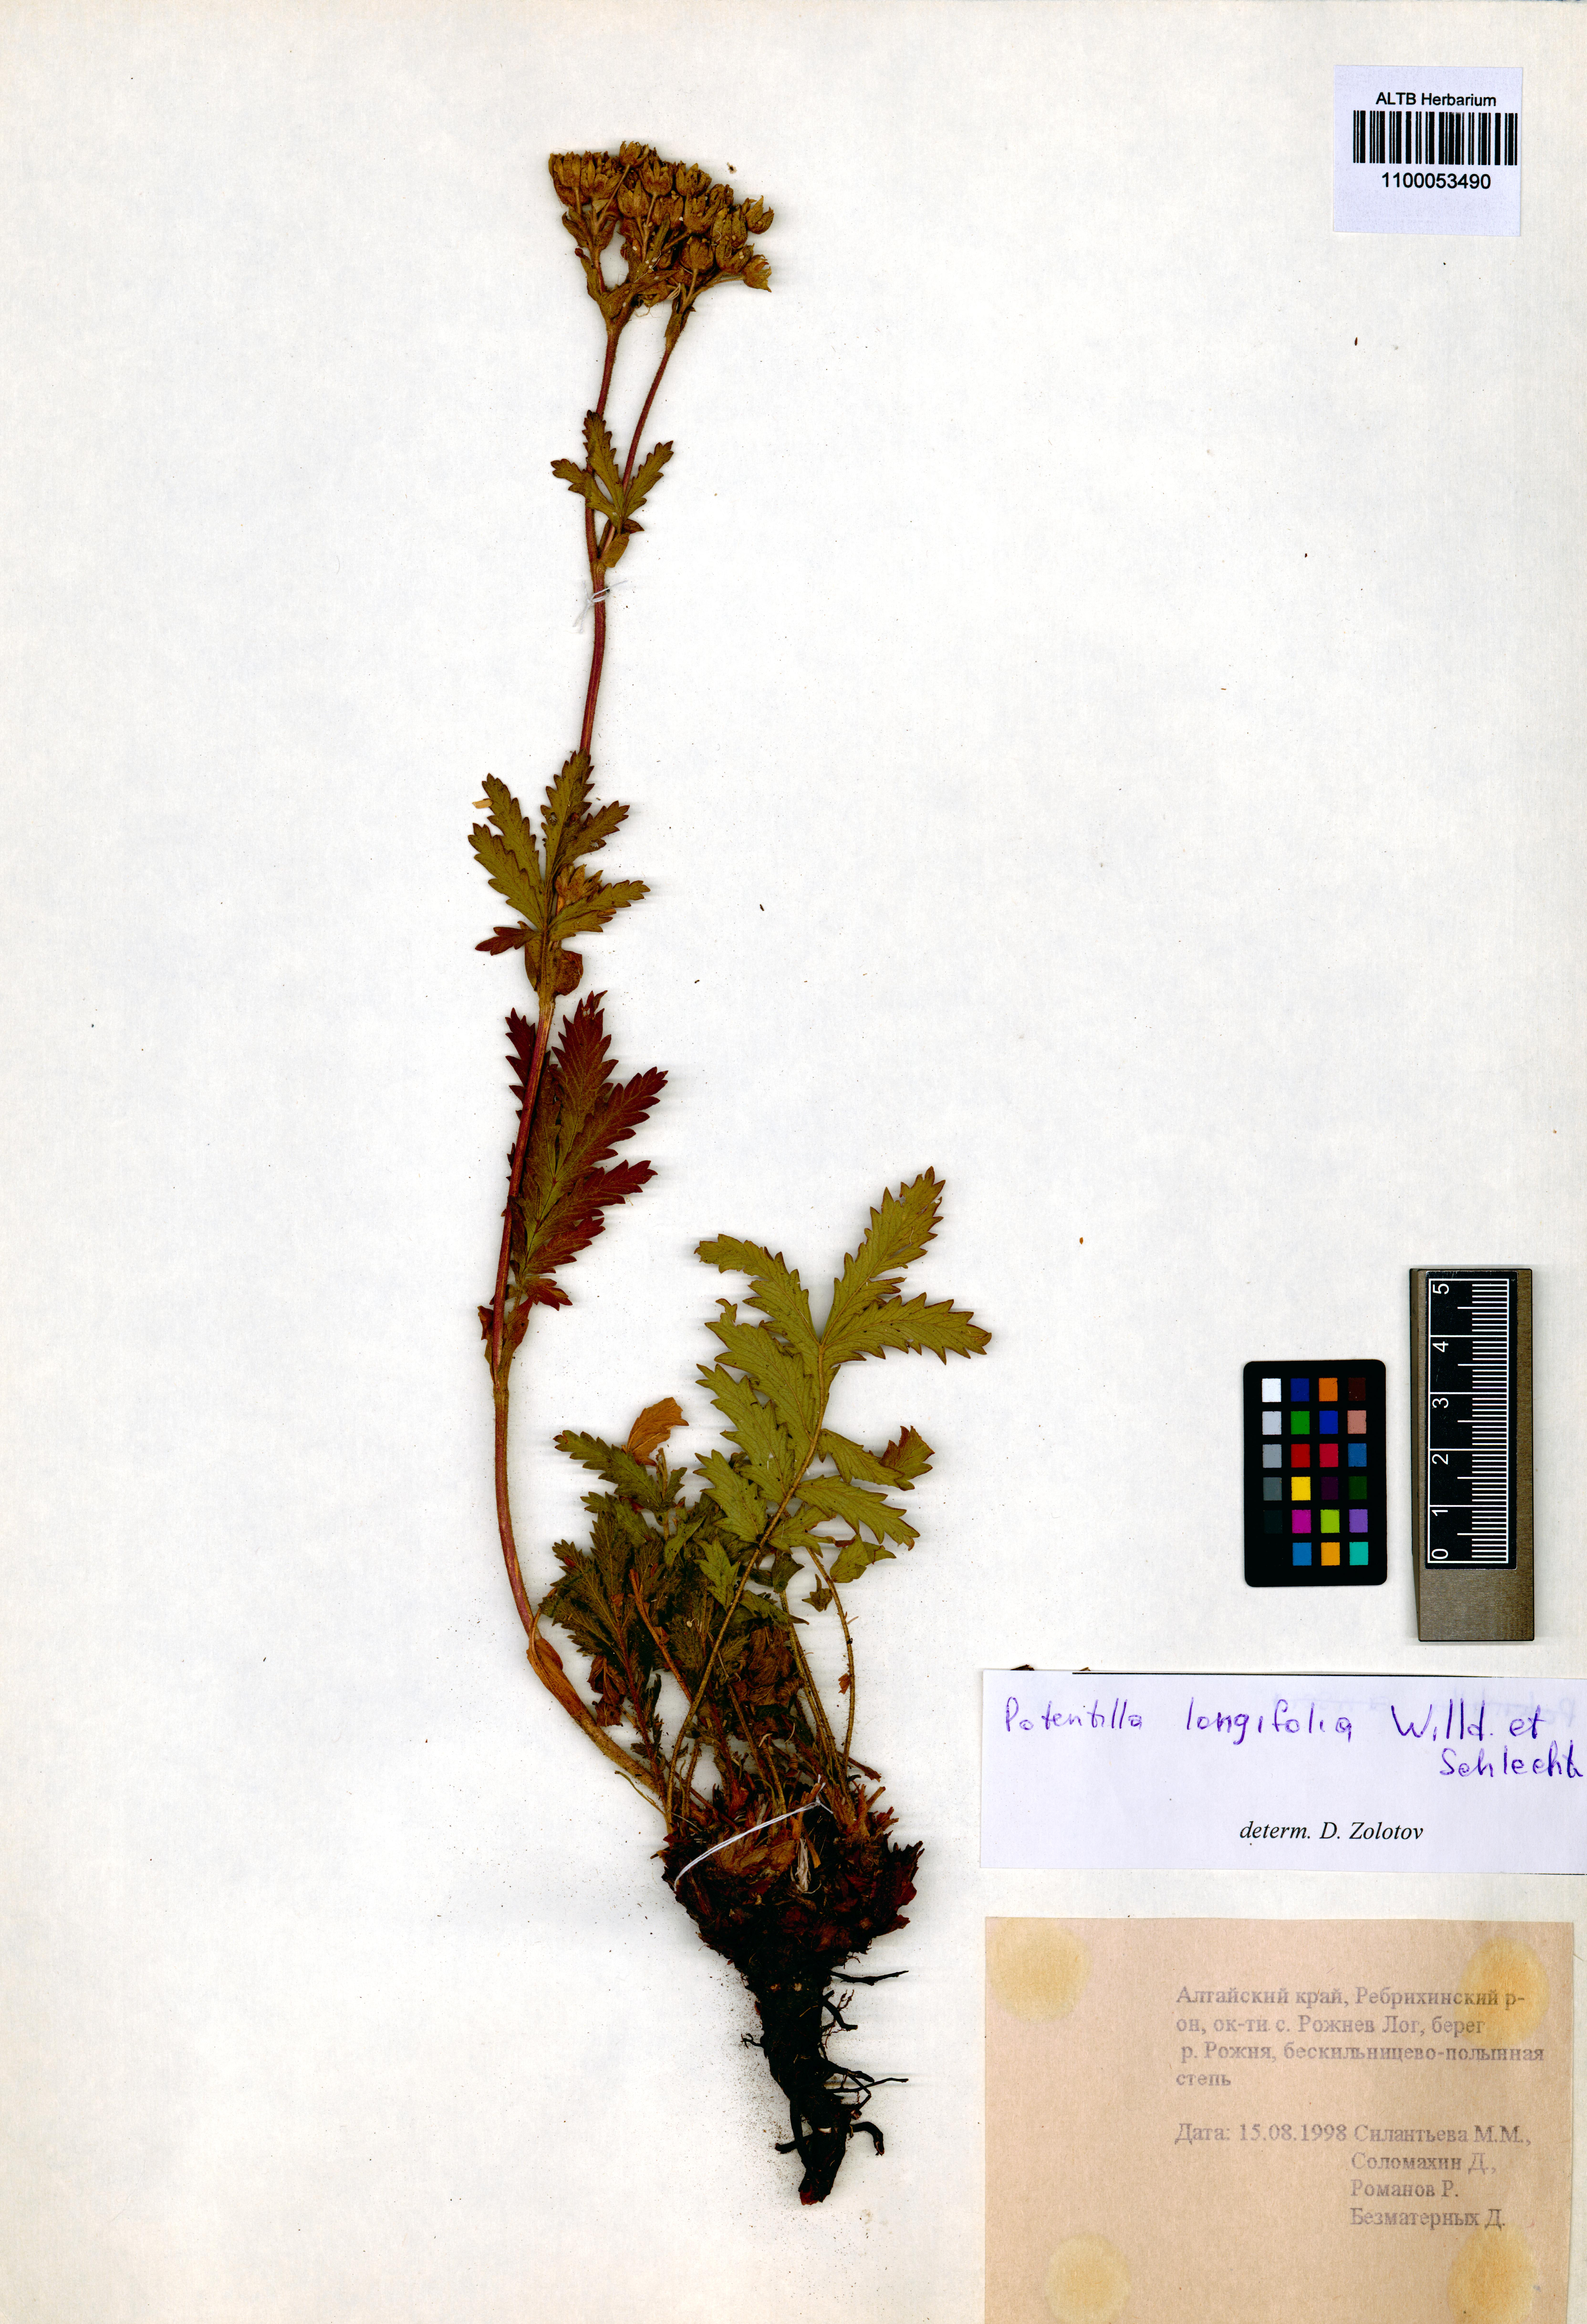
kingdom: Plantae
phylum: Tracheophyta
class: Magnoliopsida
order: Rosales
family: Rosaceae
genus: Potentilla
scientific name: Potentilla longifolia
